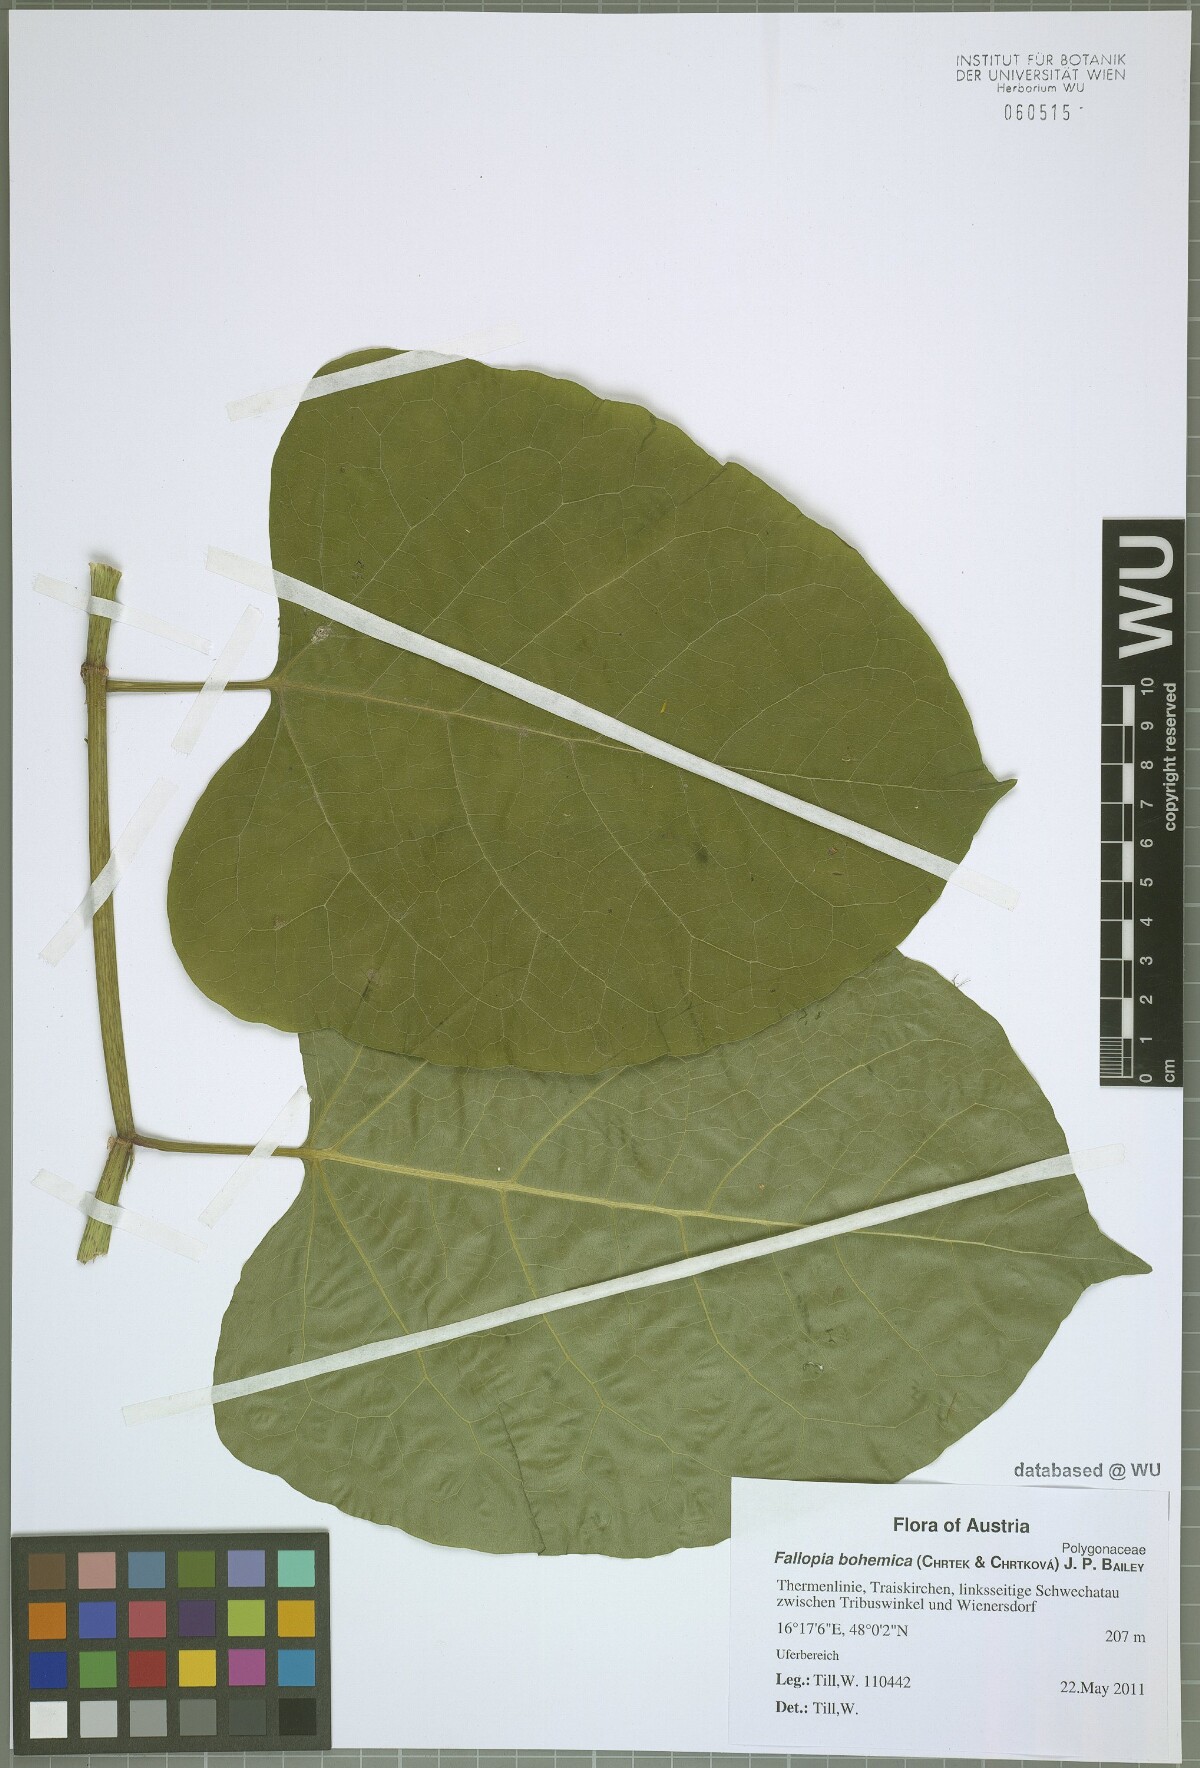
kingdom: Plantae
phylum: Tracheophyta
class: Magnoliopsida
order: Caryophyllales
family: Polygonaceae
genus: Reynoutria
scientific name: Reynoutria bohemica
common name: Bohemian knotweed
